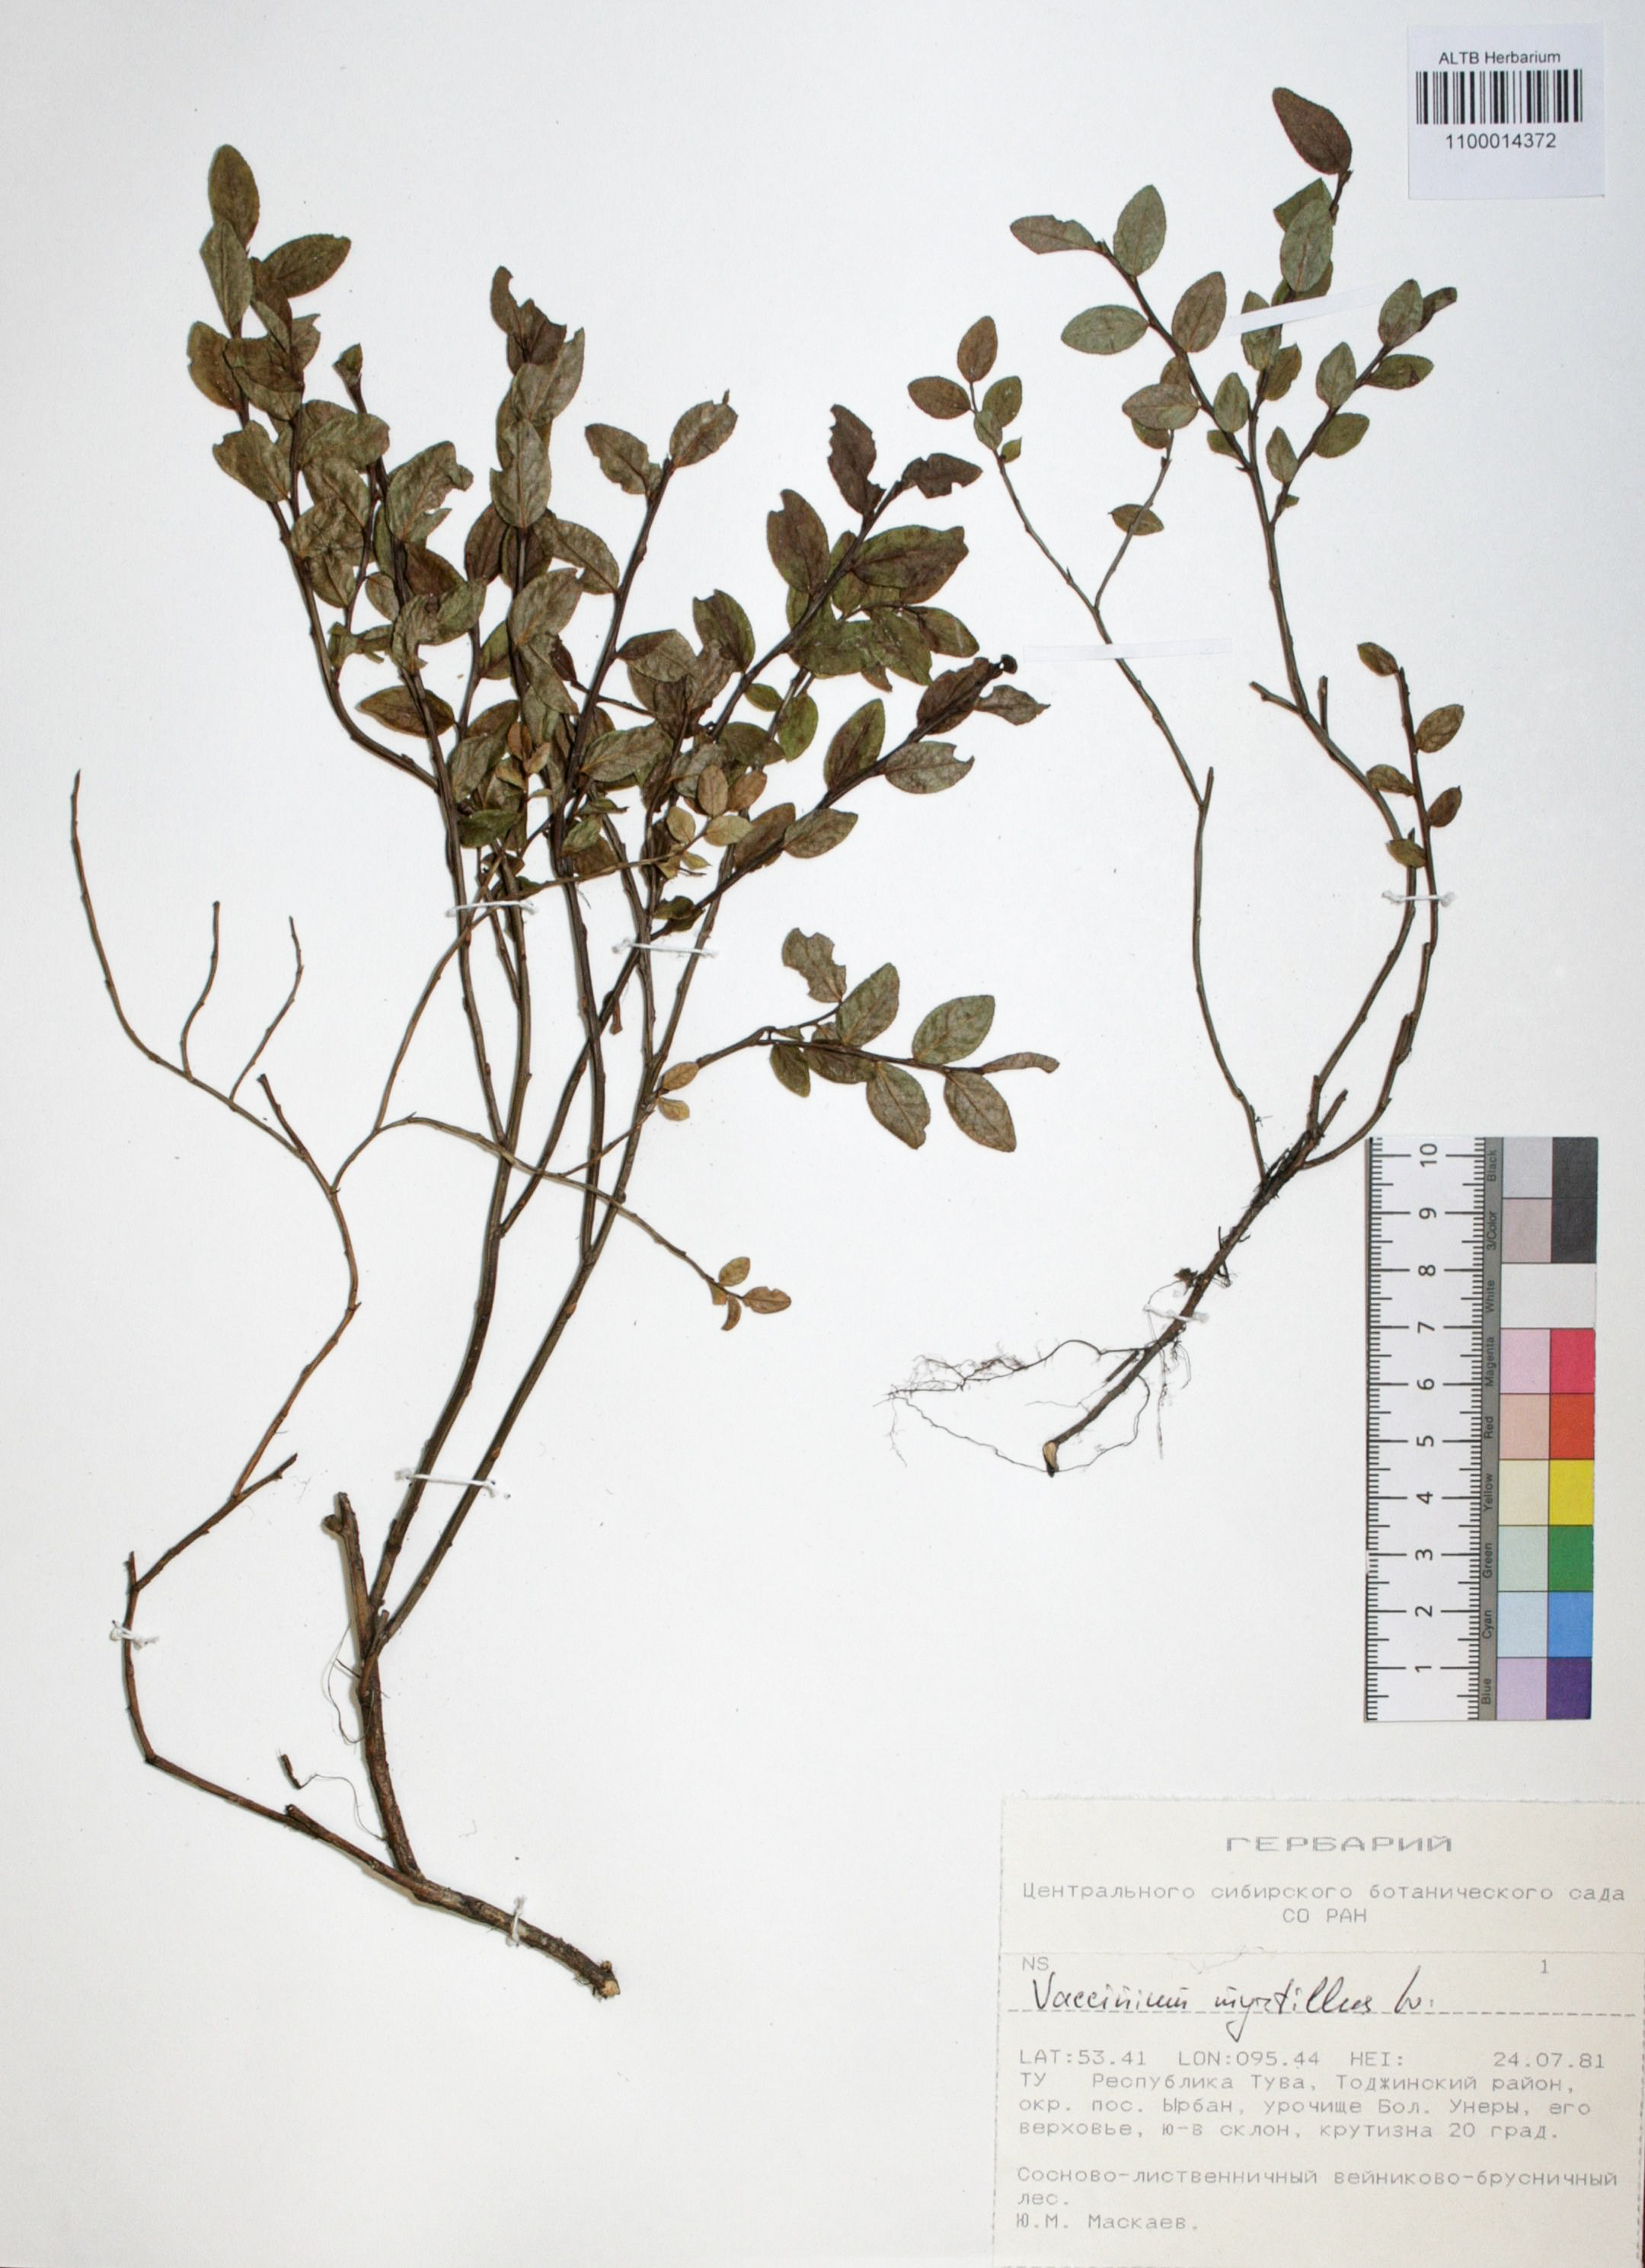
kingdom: Plantae
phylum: Tracheophyta
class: Magnoliopsida
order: Ericales
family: Ericaceae
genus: Vaccinium
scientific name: Vaccinium myrtillus
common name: Bilberry
